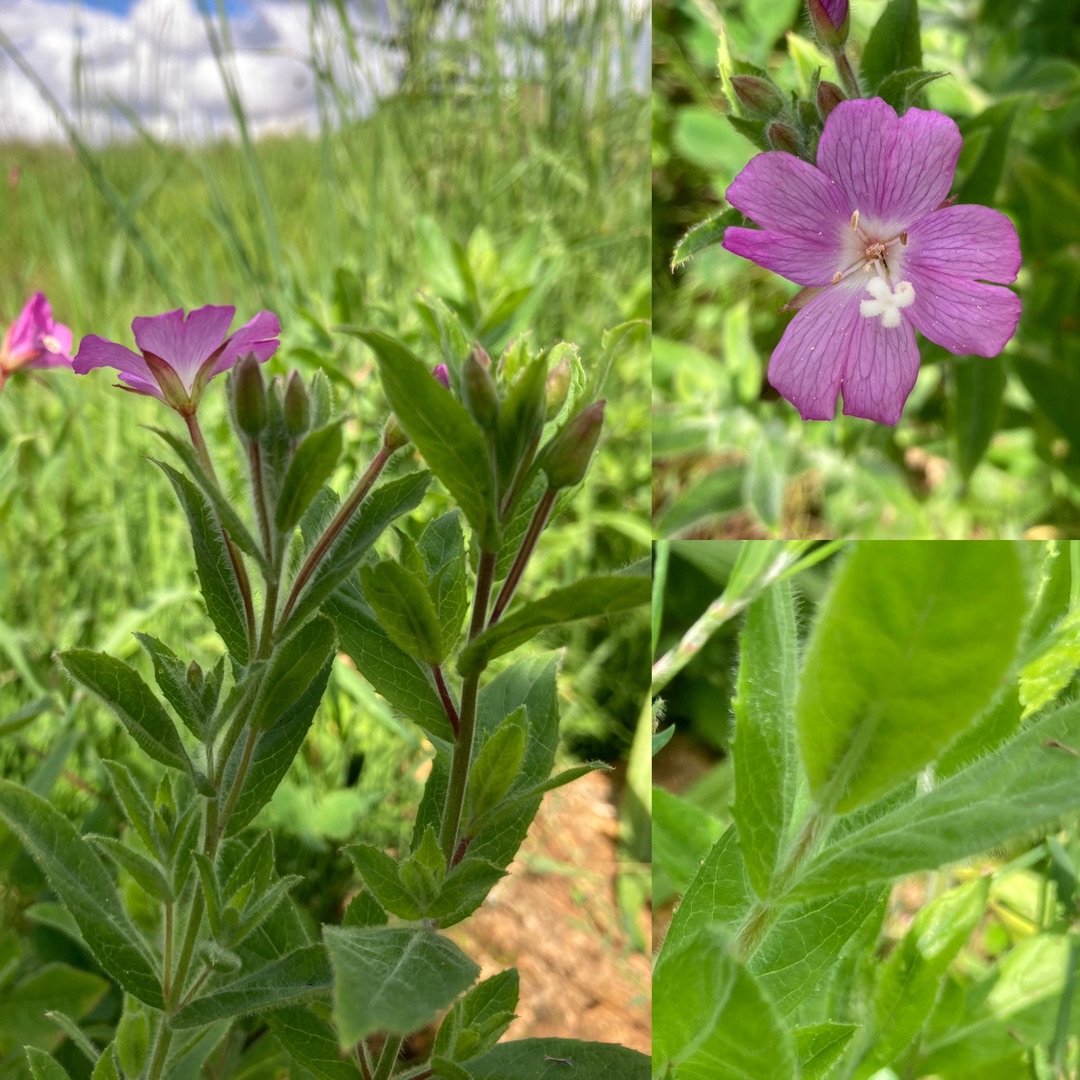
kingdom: Plantae
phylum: Tracheophyta
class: Magnoliopsida
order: Myrtales
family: Onagraceae
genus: Epilobium
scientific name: Epilobium hirsutum
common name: Lådden dueurt
